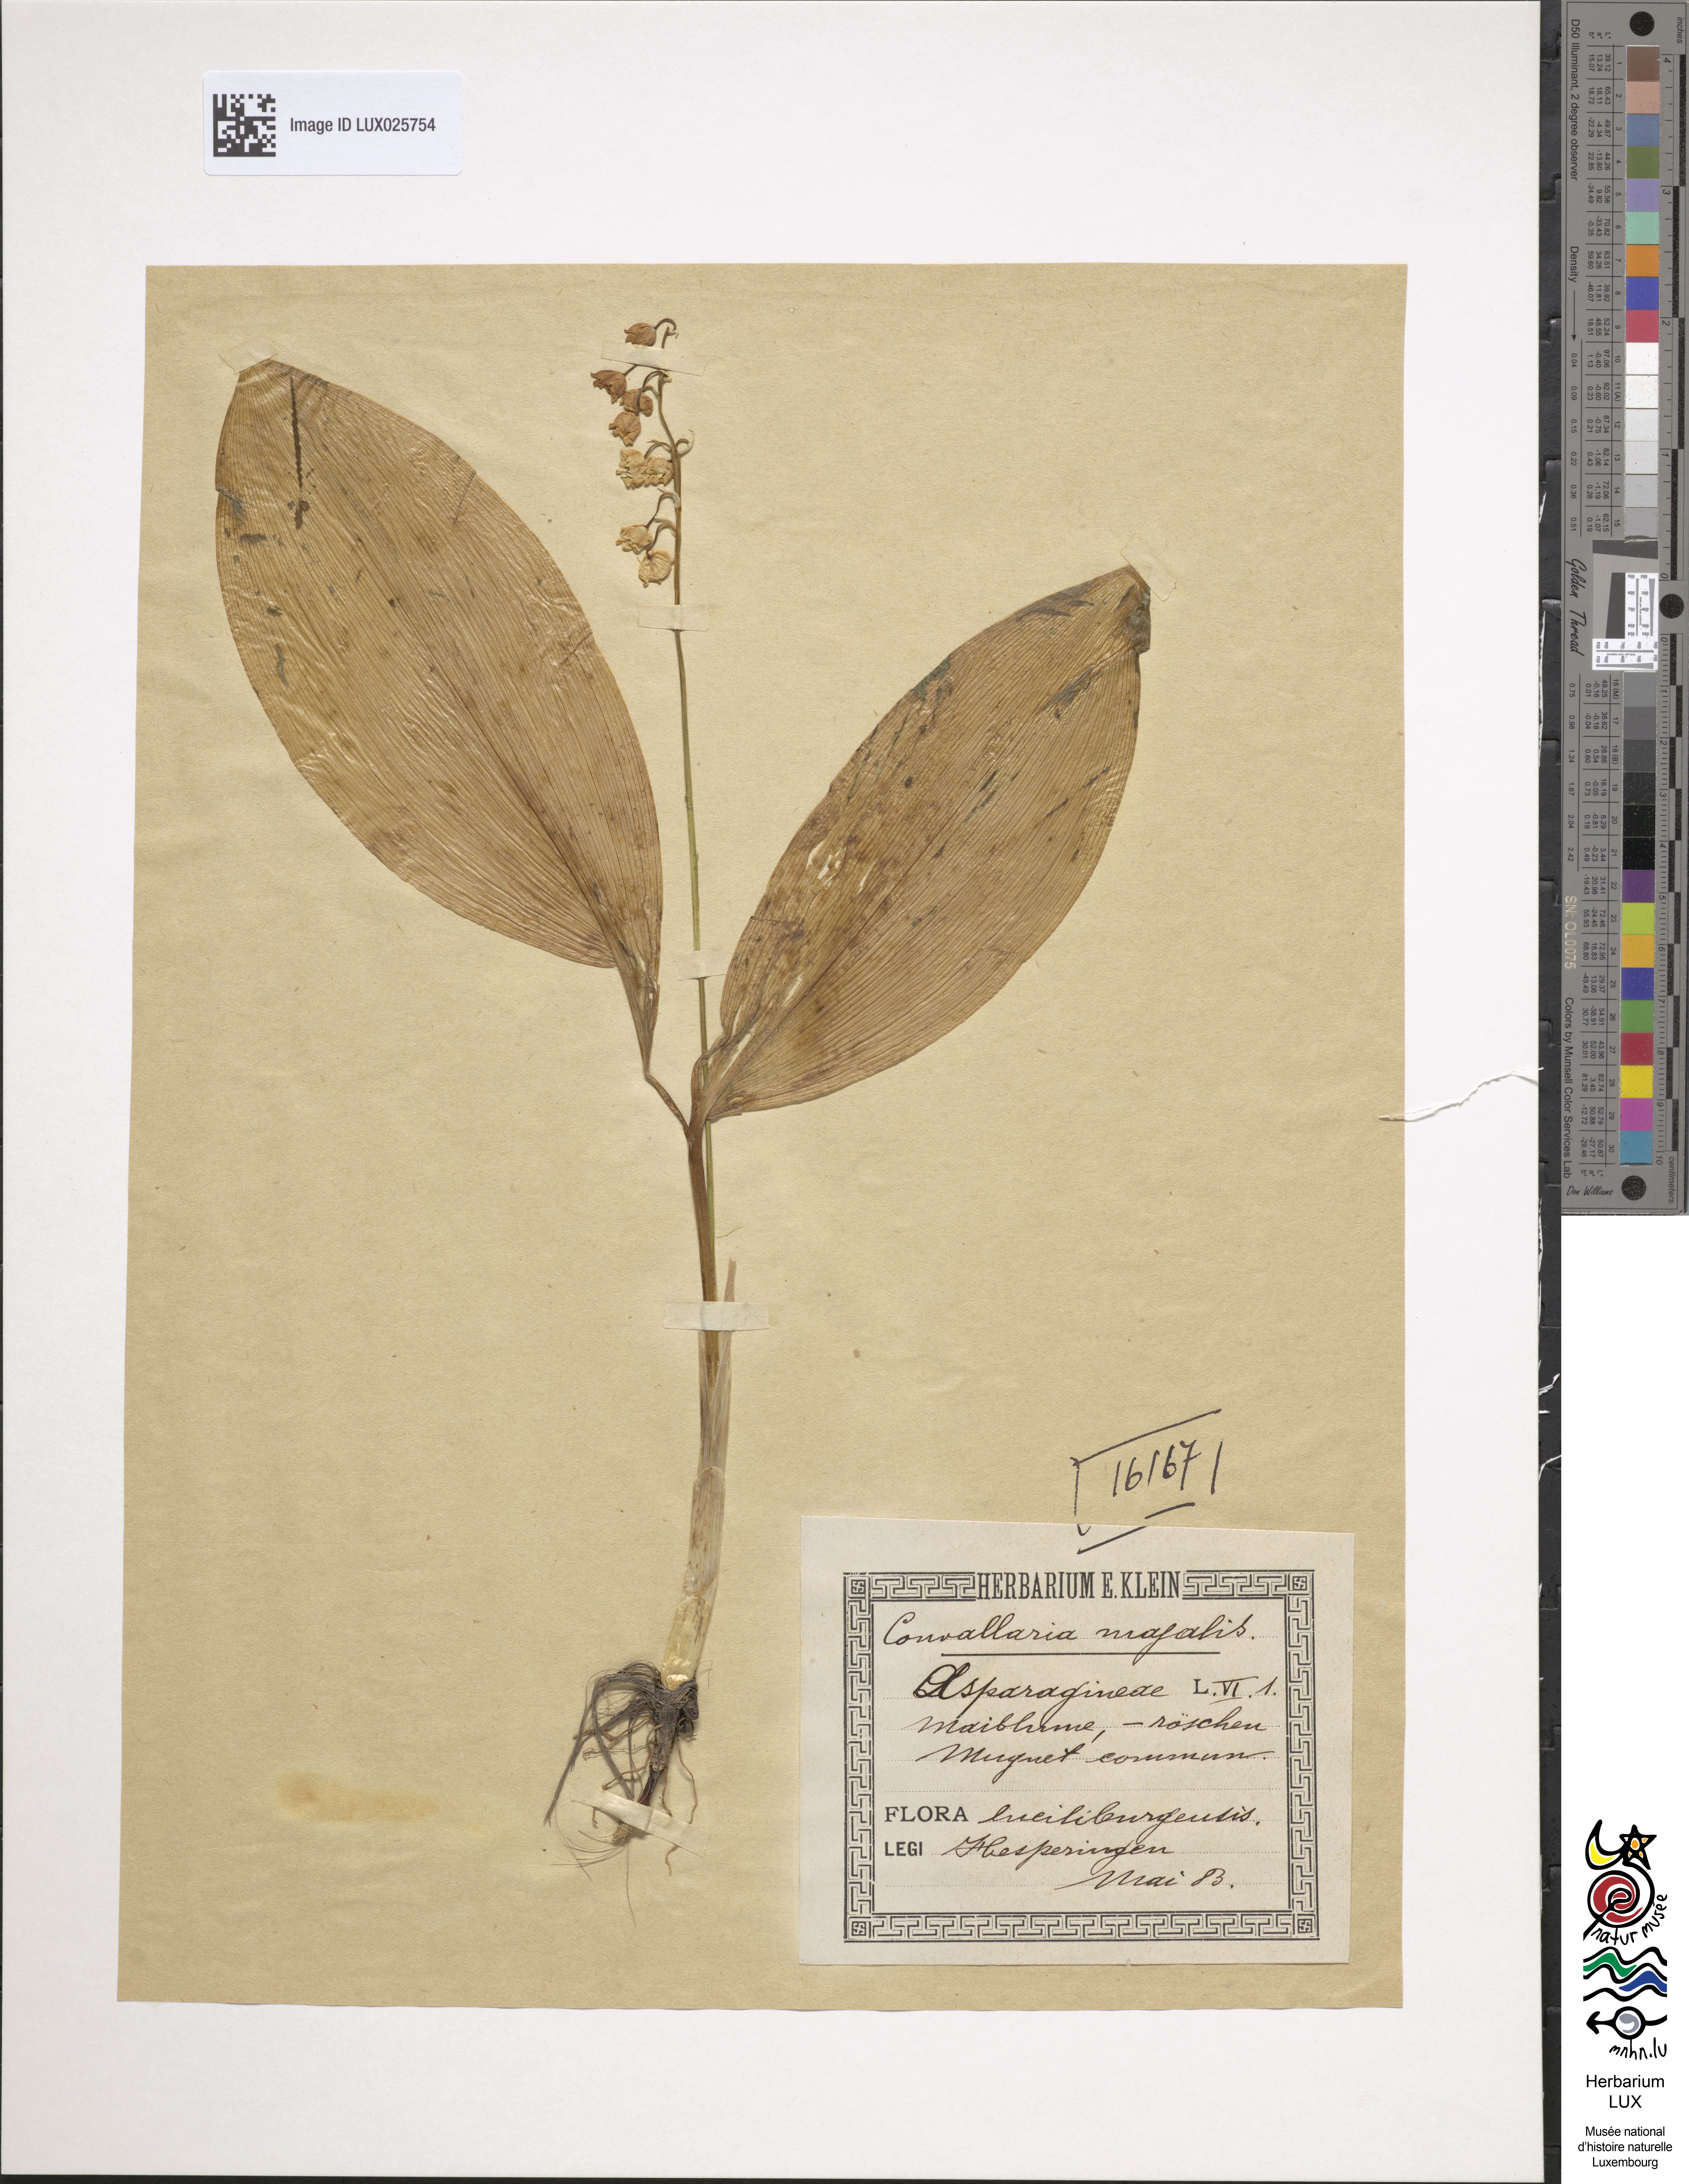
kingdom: Plantae
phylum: Tracheophyta
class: Liliopsida
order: Asparagales
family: Asparagaceae
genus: Convallaria
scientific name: Convallaria majalis
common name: Lily-of-the-valley
